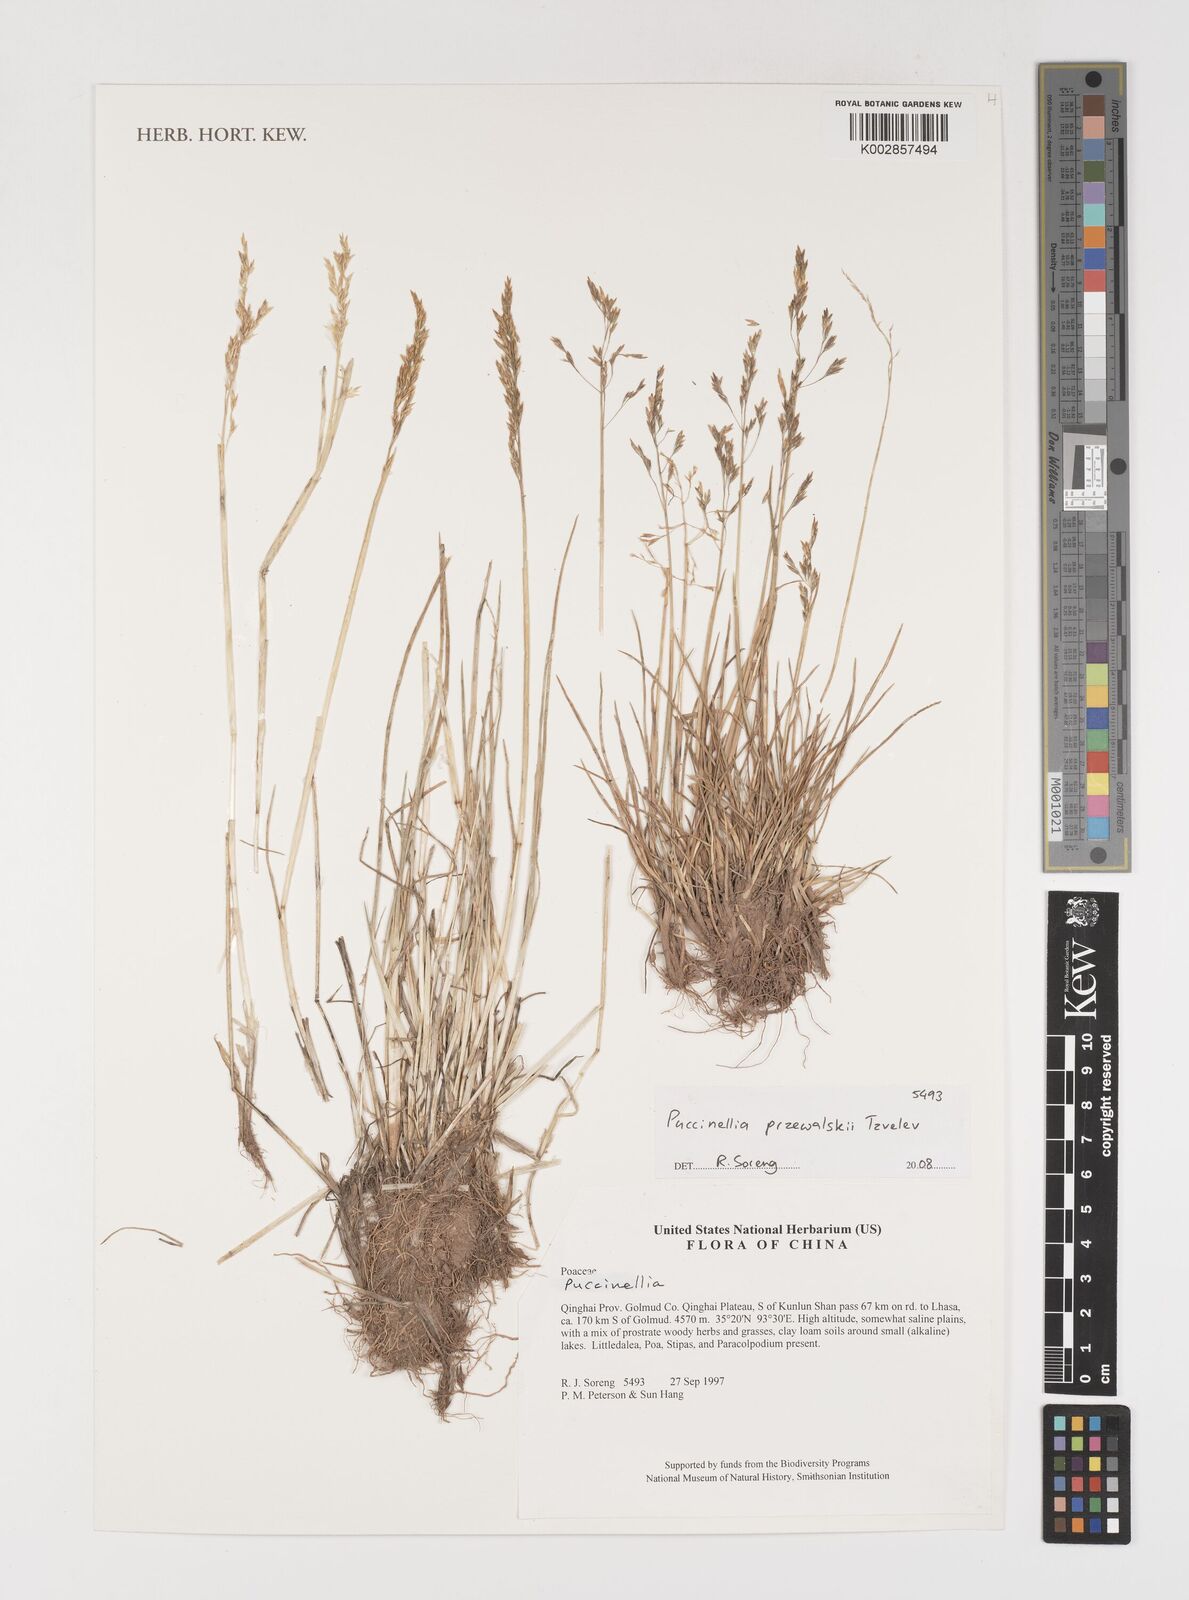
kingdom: Plantae
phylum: Tracheophyta
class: Liliopsida
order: Poales
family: Poaceae
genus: Puccinellia
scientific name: Puccinellia przewalskii
